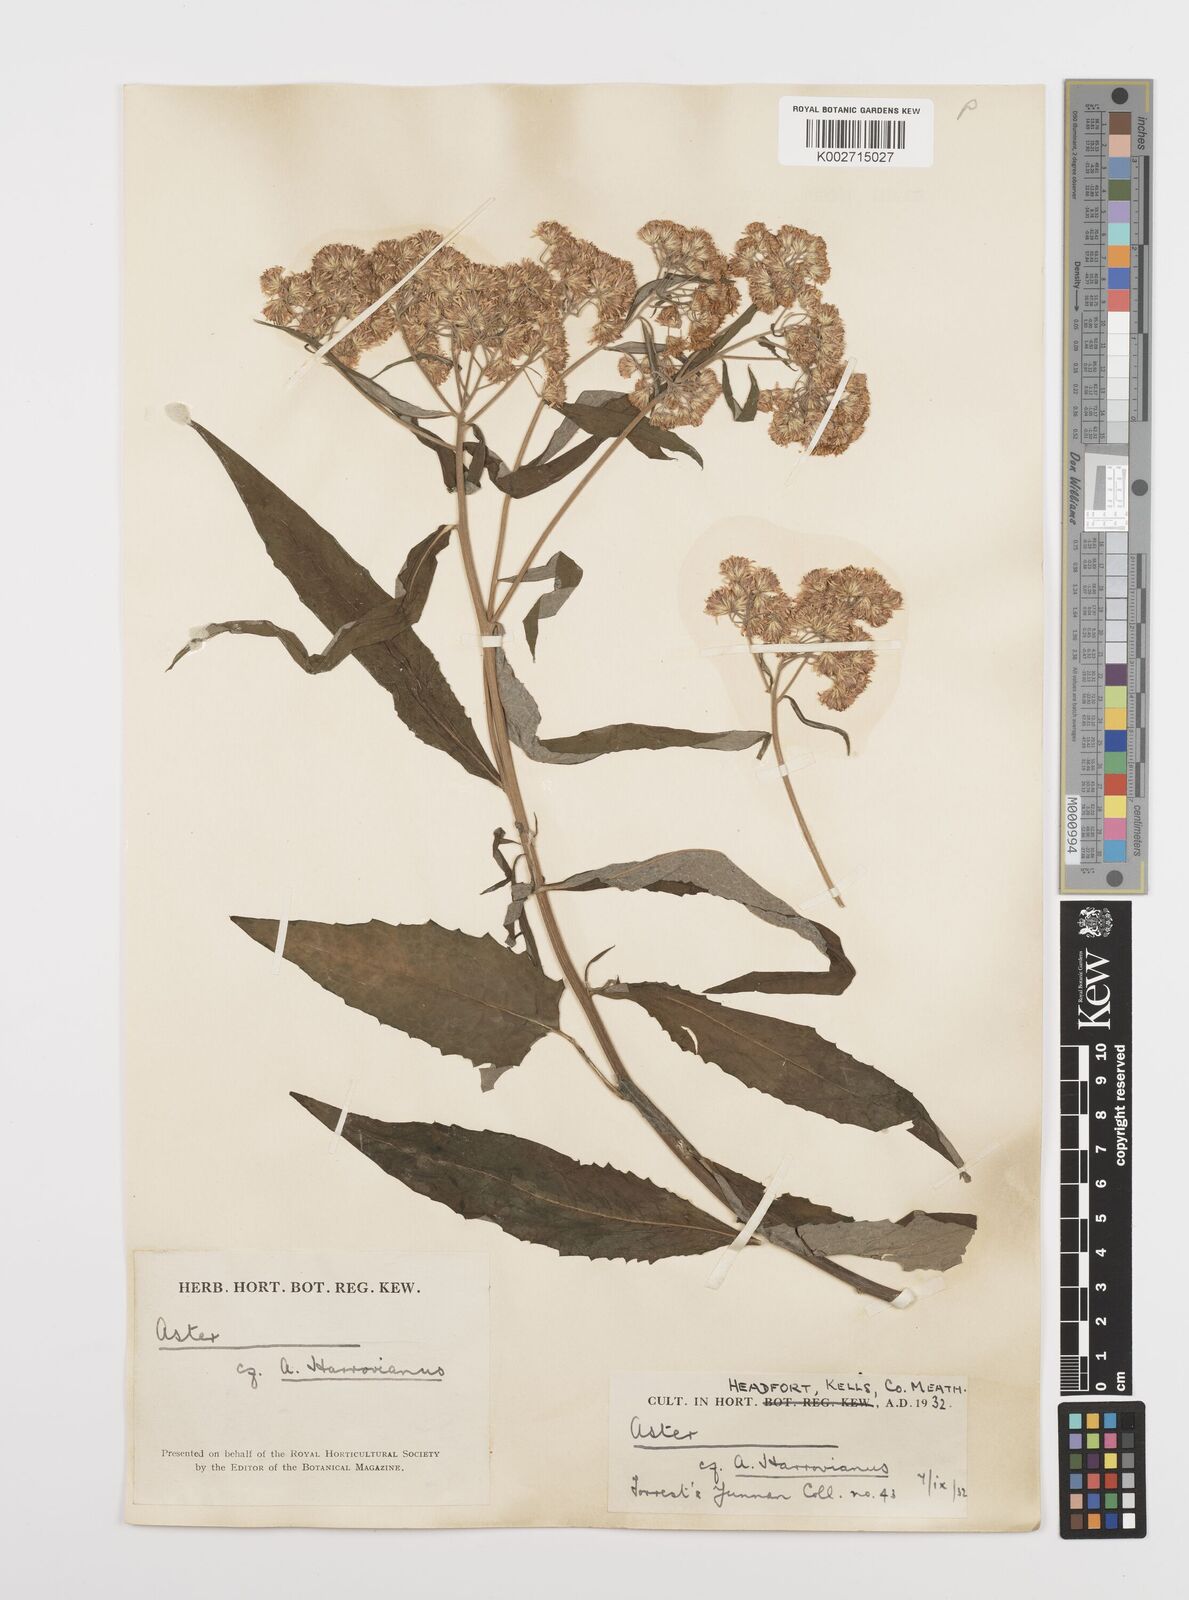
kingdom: Plantae
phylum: Tracheophyta
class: Magnoliopsida
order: Asterales
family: Asteraceae
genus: Sinosidus
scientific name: Sinosidus albescens
